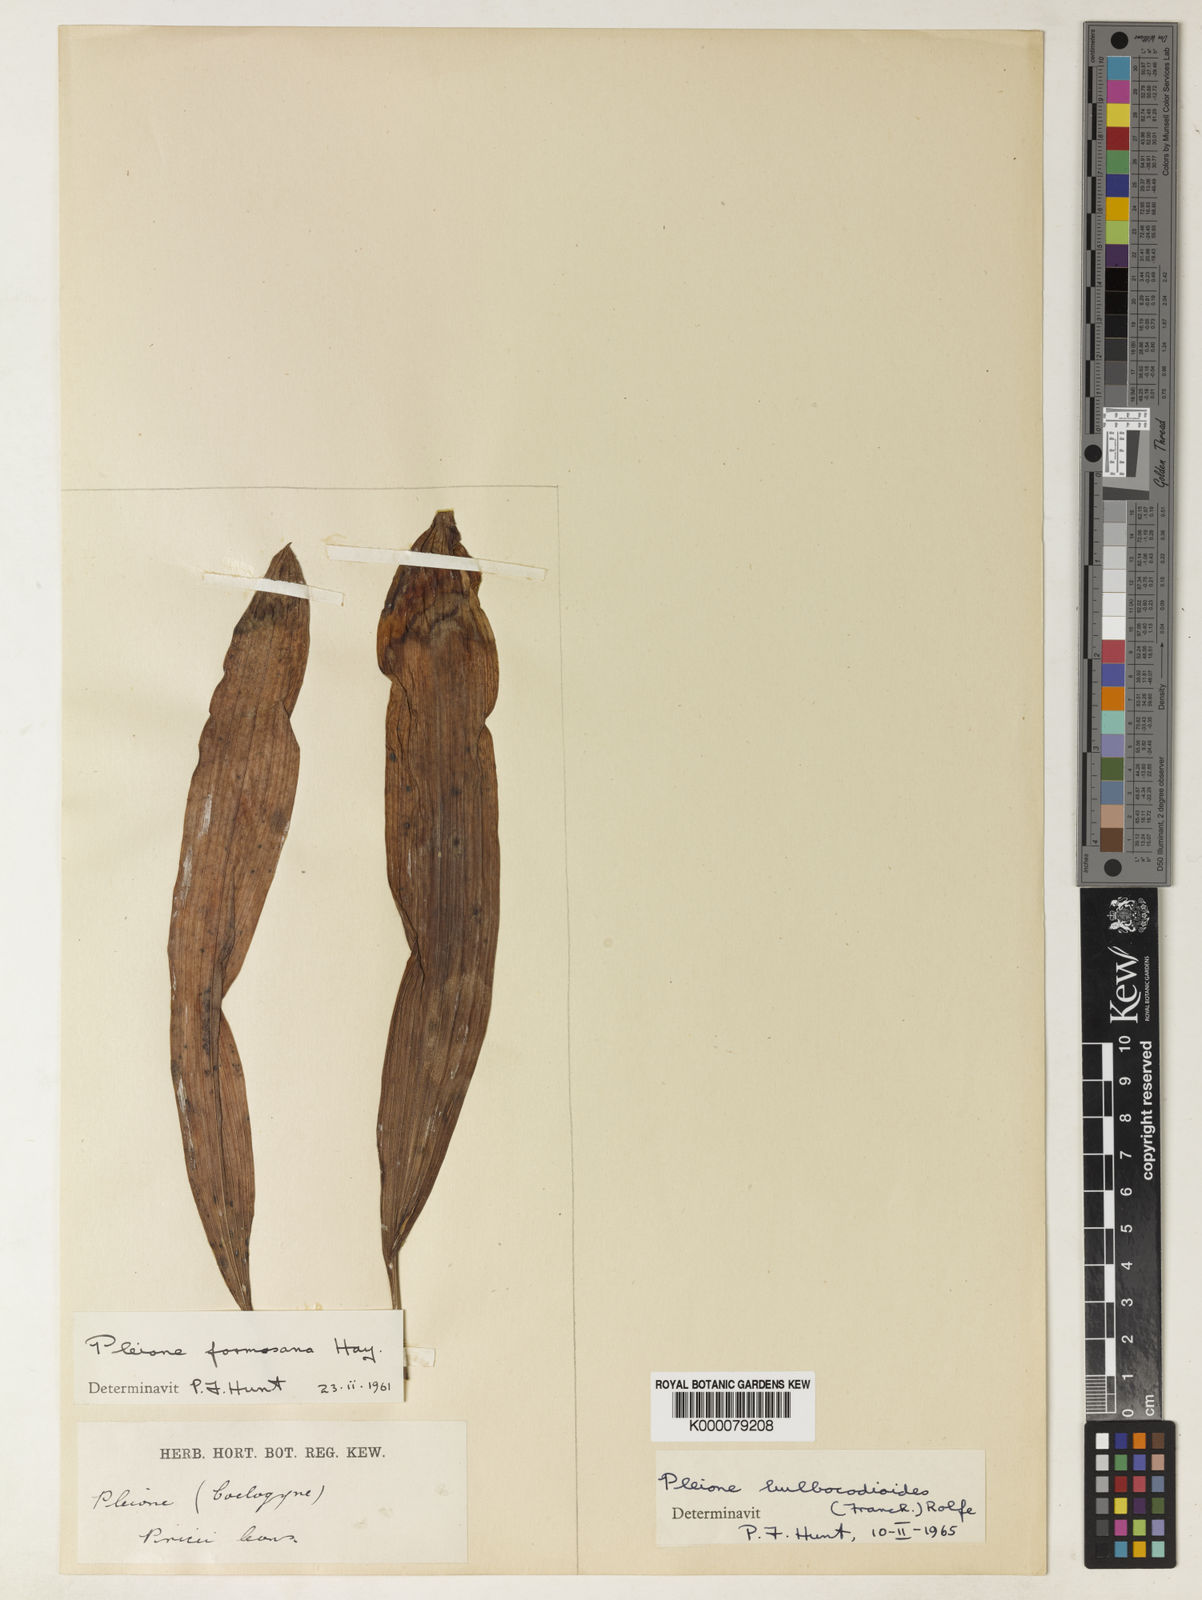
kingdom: Plantae
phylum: Tracheophyta
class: Liliopsida
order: Asparagales
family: Orchidaceae
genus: Pleione
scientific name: Pleione bulbocodioides
